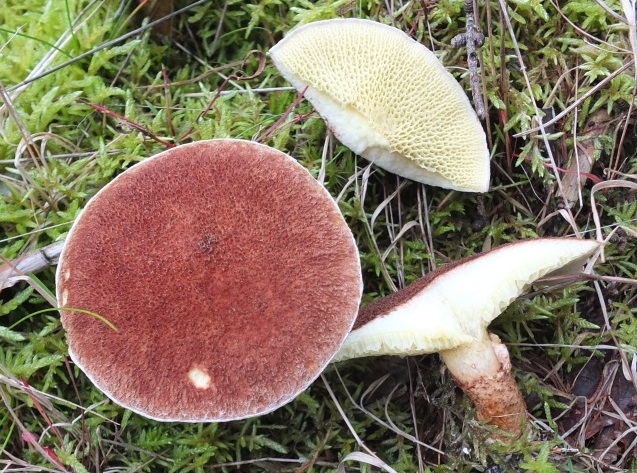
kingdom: Fungi
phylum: Basidiomycota
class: Agaricomycetes
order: Boletales
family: Suillaceae
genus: Suillus
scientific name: Suillus cavipes
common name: hulstokket slimrørhat
